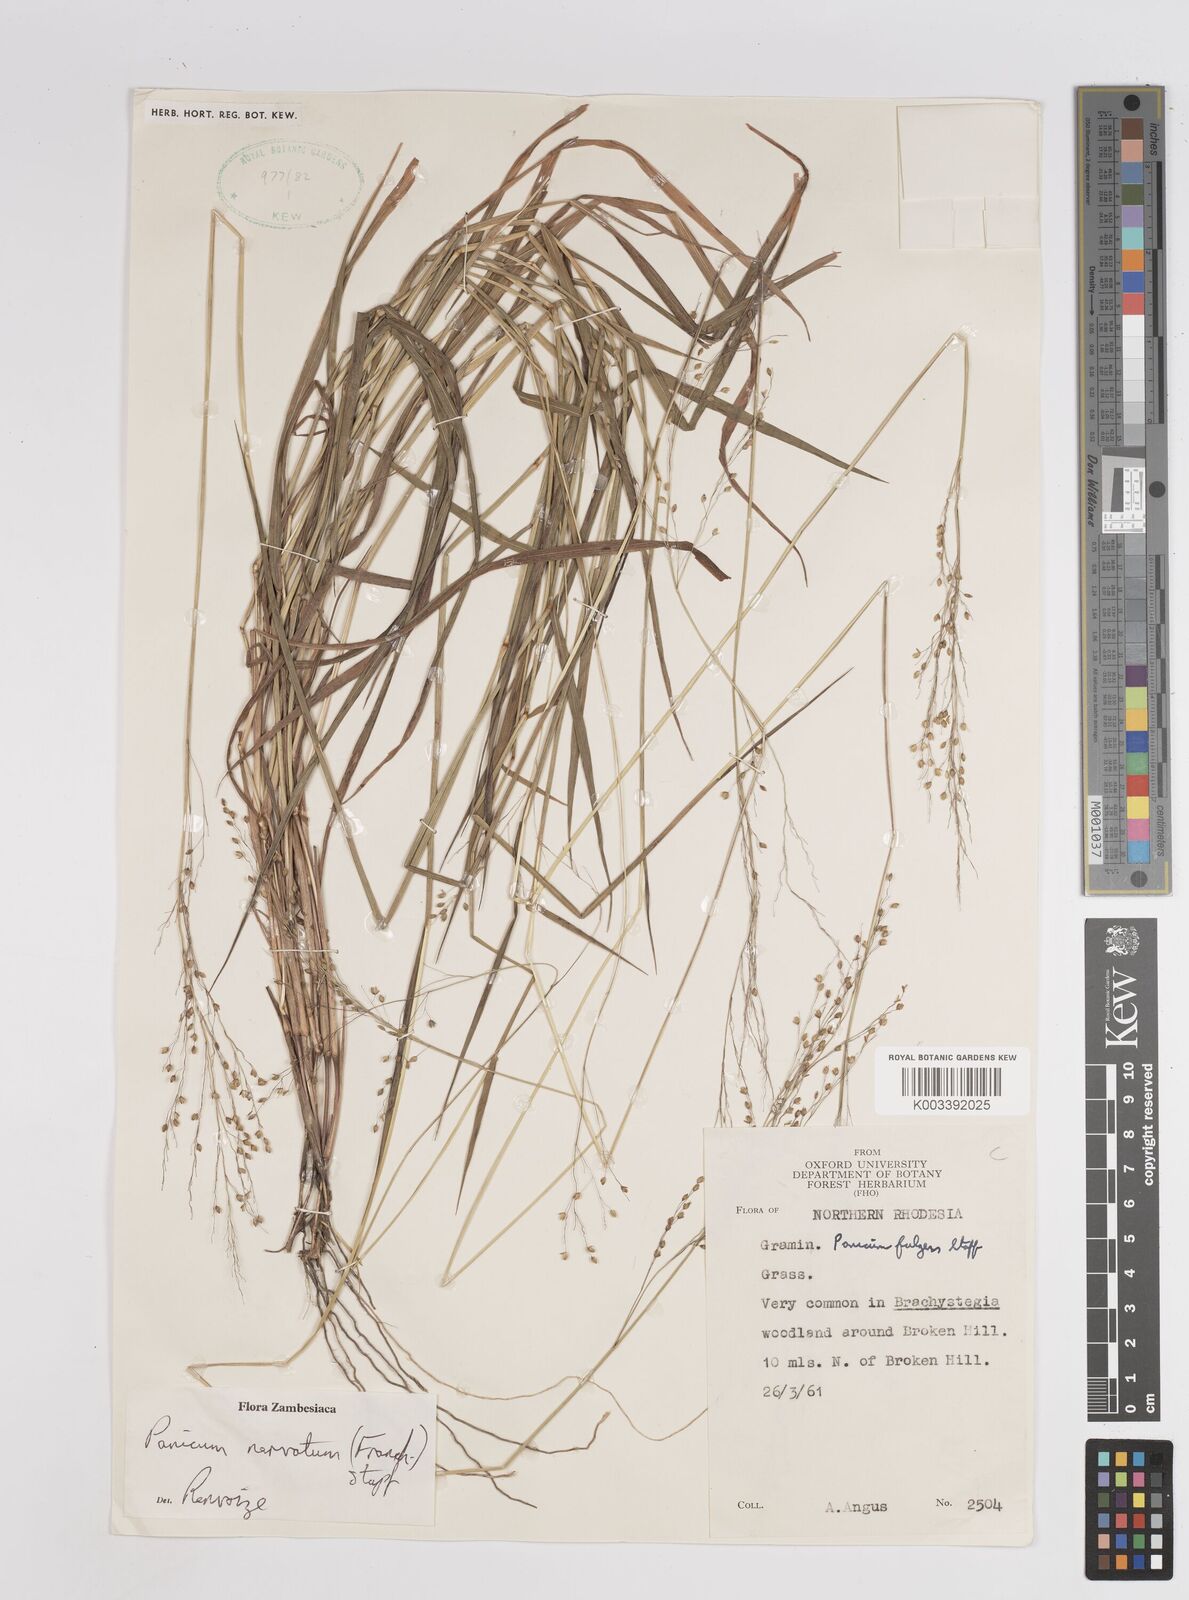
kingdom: Plantae
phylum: Tracheophyta
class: Liliopsida
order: Poales
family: Poaceae
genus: Trichanthecium
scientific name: Trichanthecium nervatum
